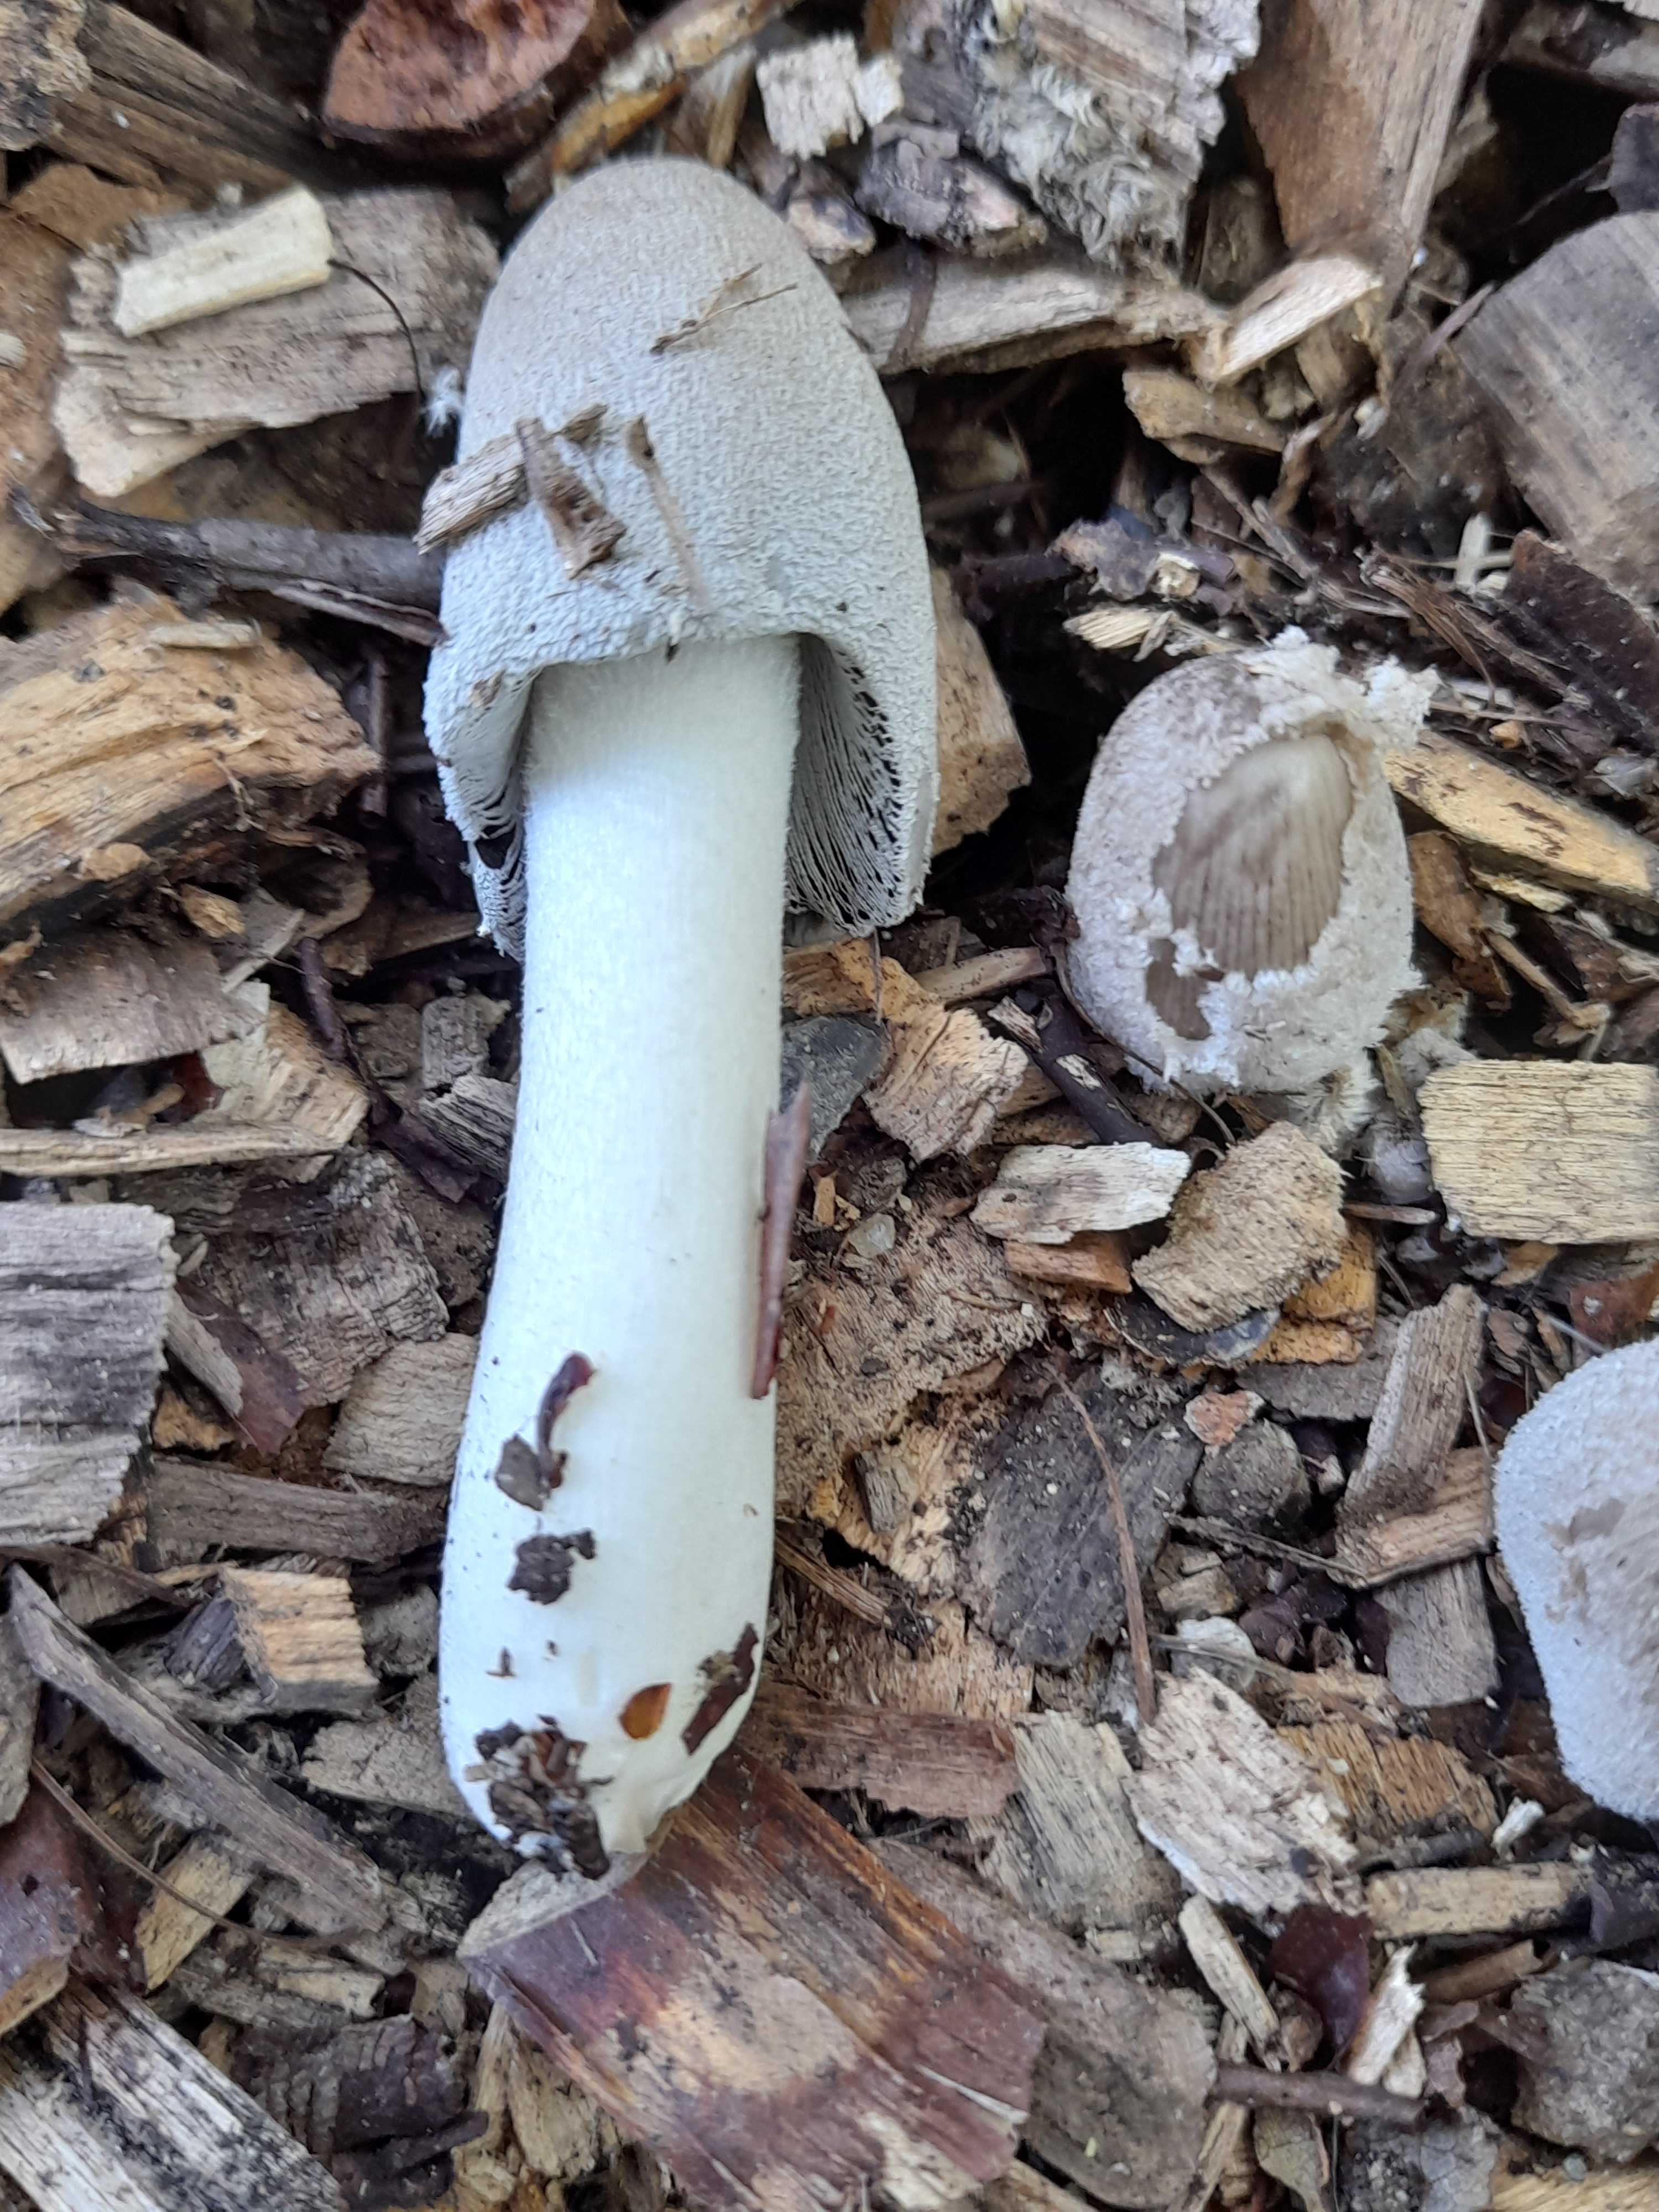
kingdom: Fungi
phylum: Basidiomycota
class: Agaricomycetes
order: Agaricales
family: Psathyrellaceae
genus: Coprinopsis
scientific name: Coprinopsis lagopus
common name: dunstokket blækhat
